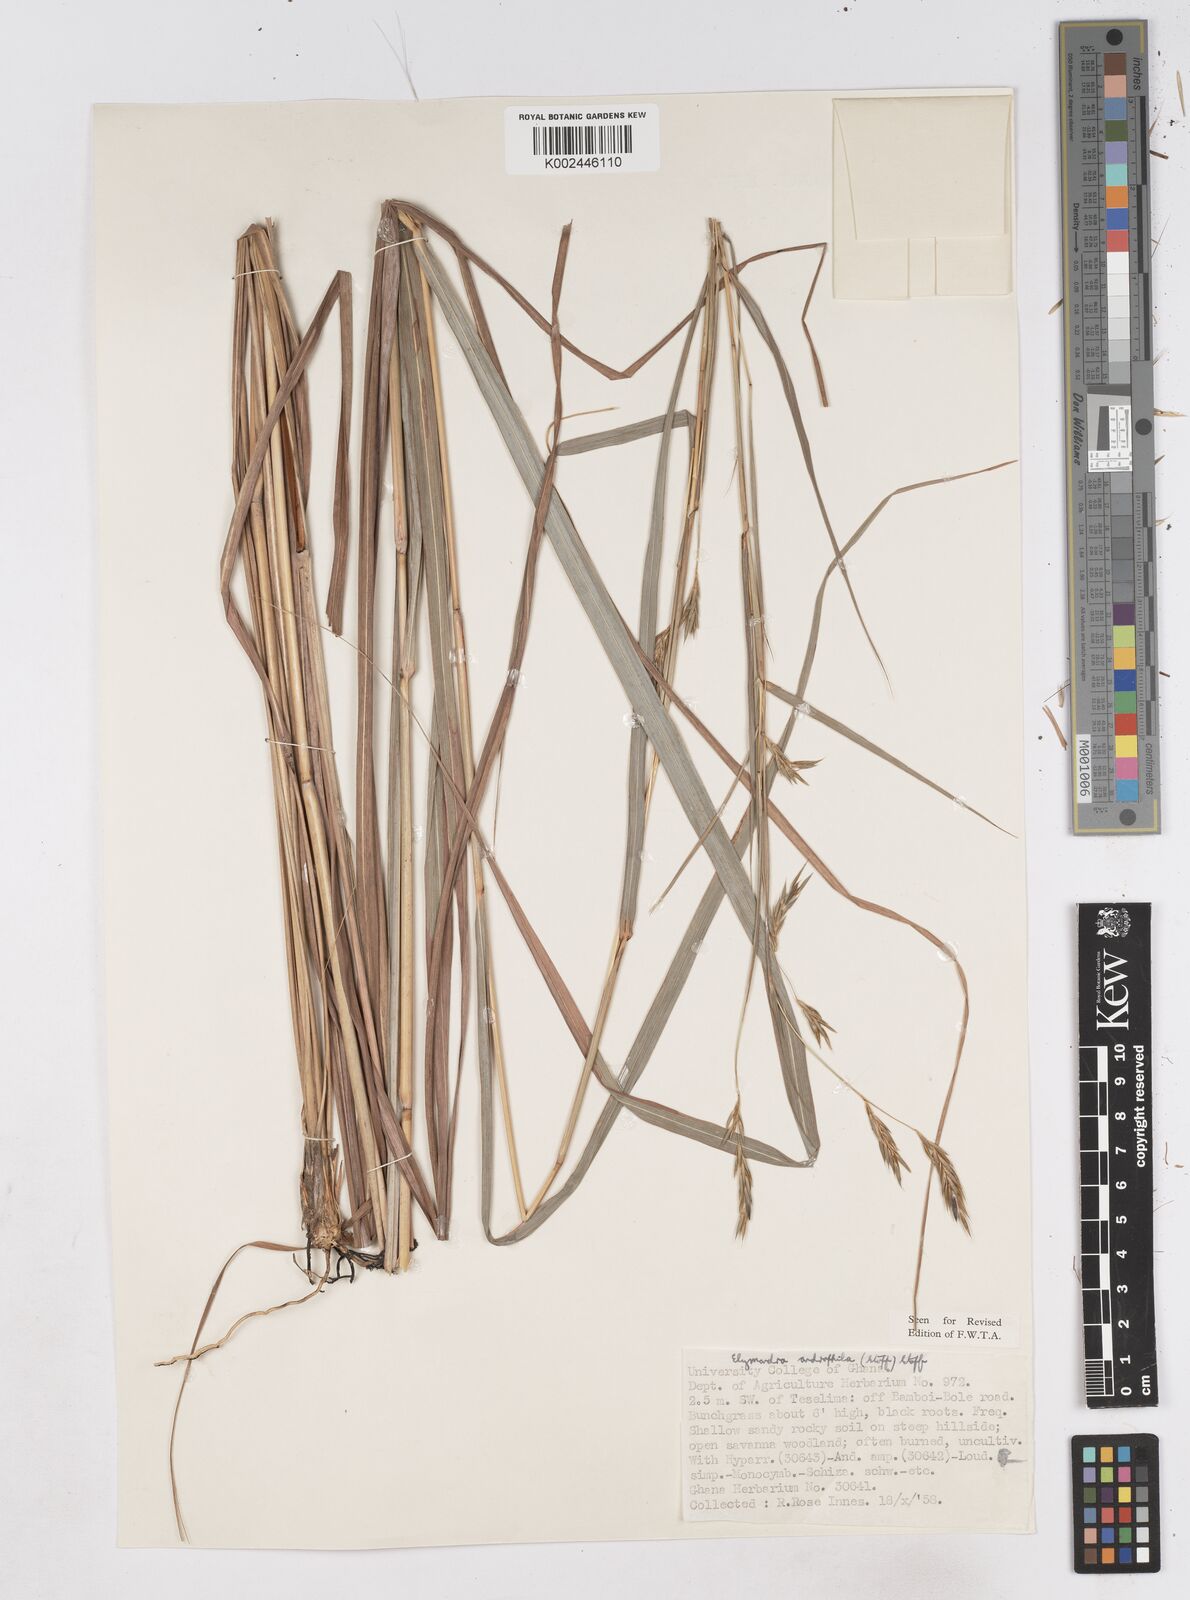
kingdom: Plantae
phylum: Tracheophyta
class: Liliopsida
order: Poales
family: Poaceae
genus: Elymandra
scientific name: Elymandra androphila
